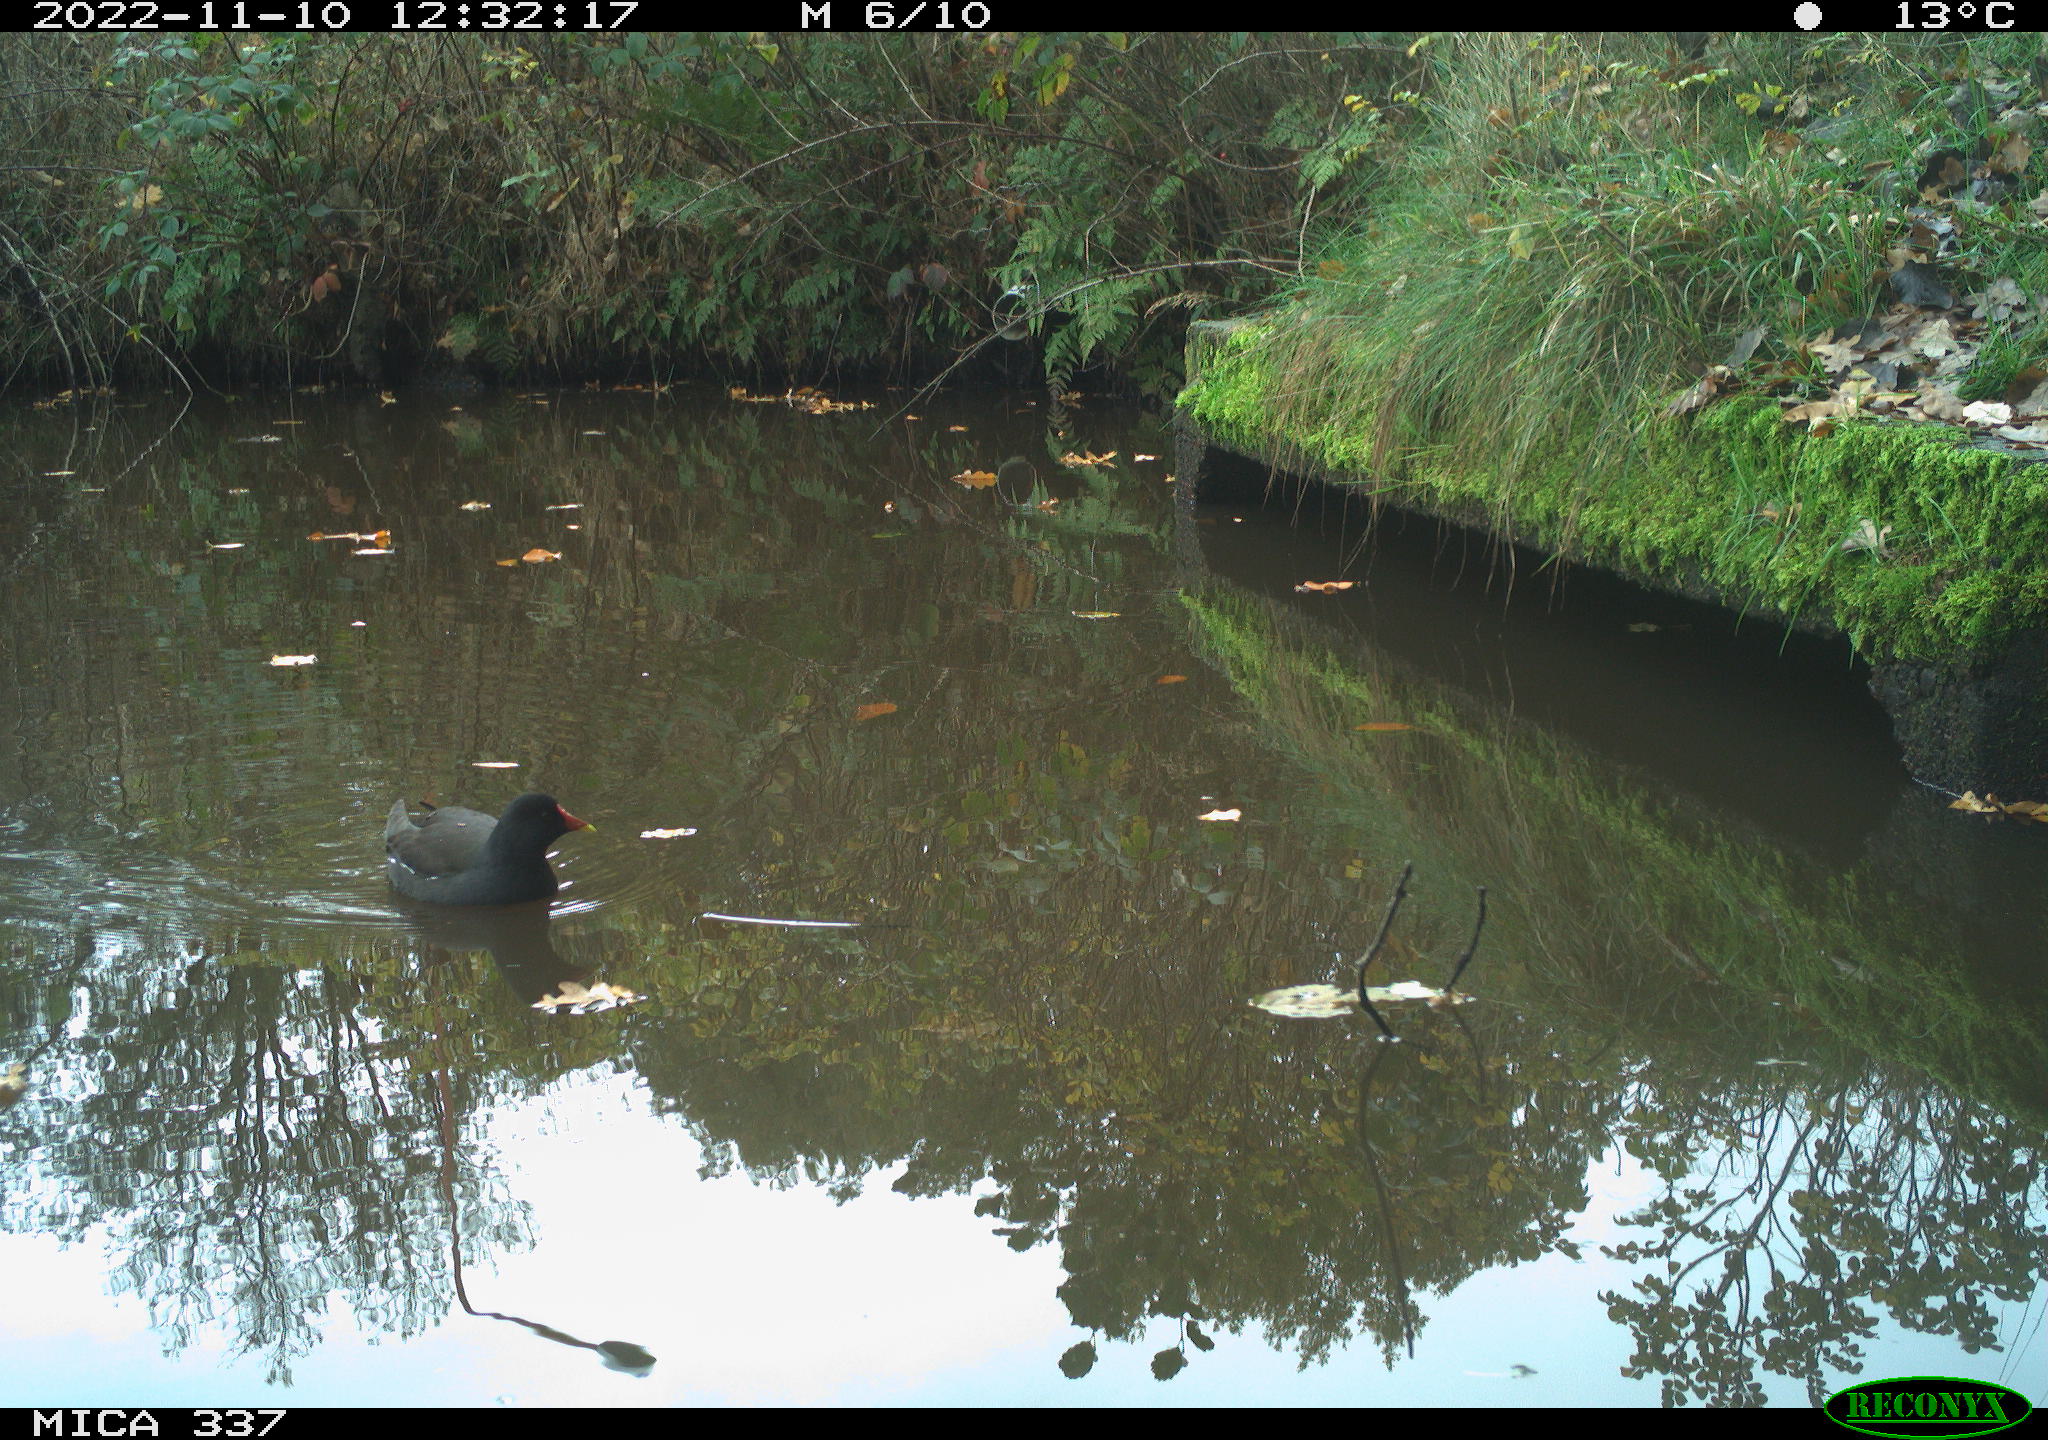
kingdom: Animalia
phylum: Chordata
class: Aves
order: Gruiformes
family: Rallidae
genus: Gallinula
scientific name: Gallinula chloropus
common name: Common moorhen
